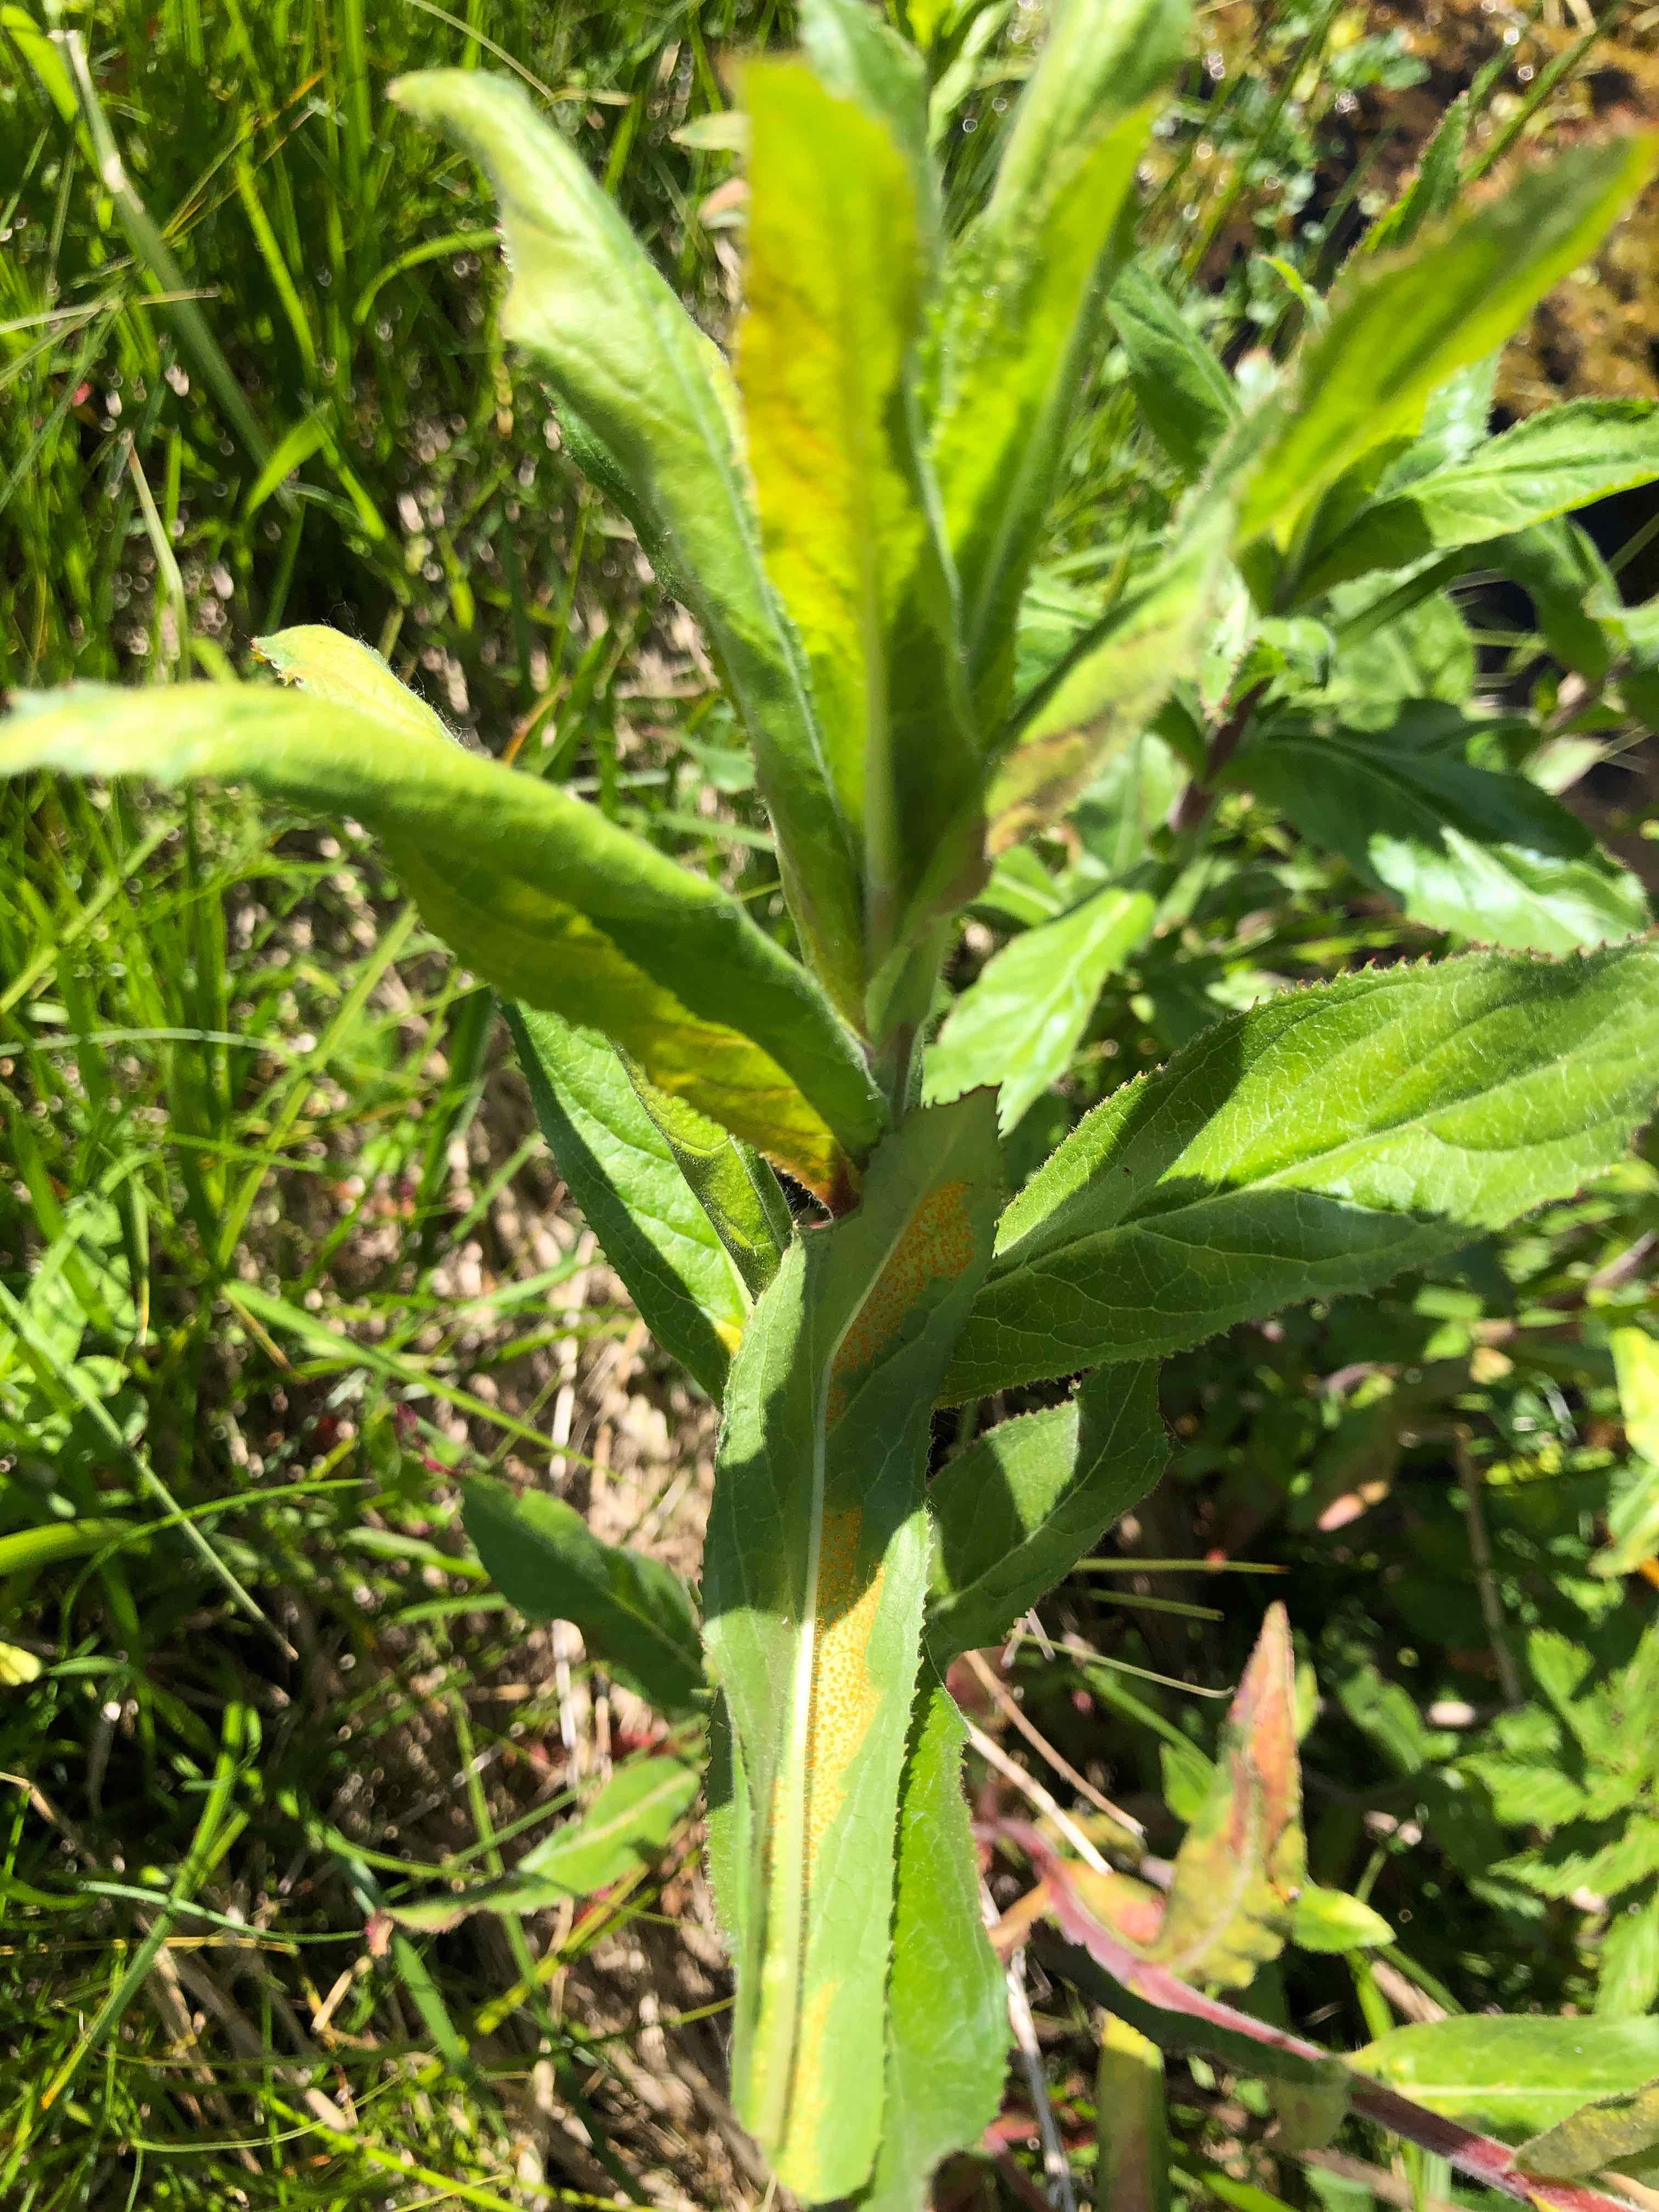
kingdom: Fungi
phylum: Basidiomycota
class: Pucciniomycetes
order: Pucciniales
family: Pucciniaceae
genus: Puccinia
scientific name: Puccinia pulverulenta
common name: dueurt-tvecellerust
